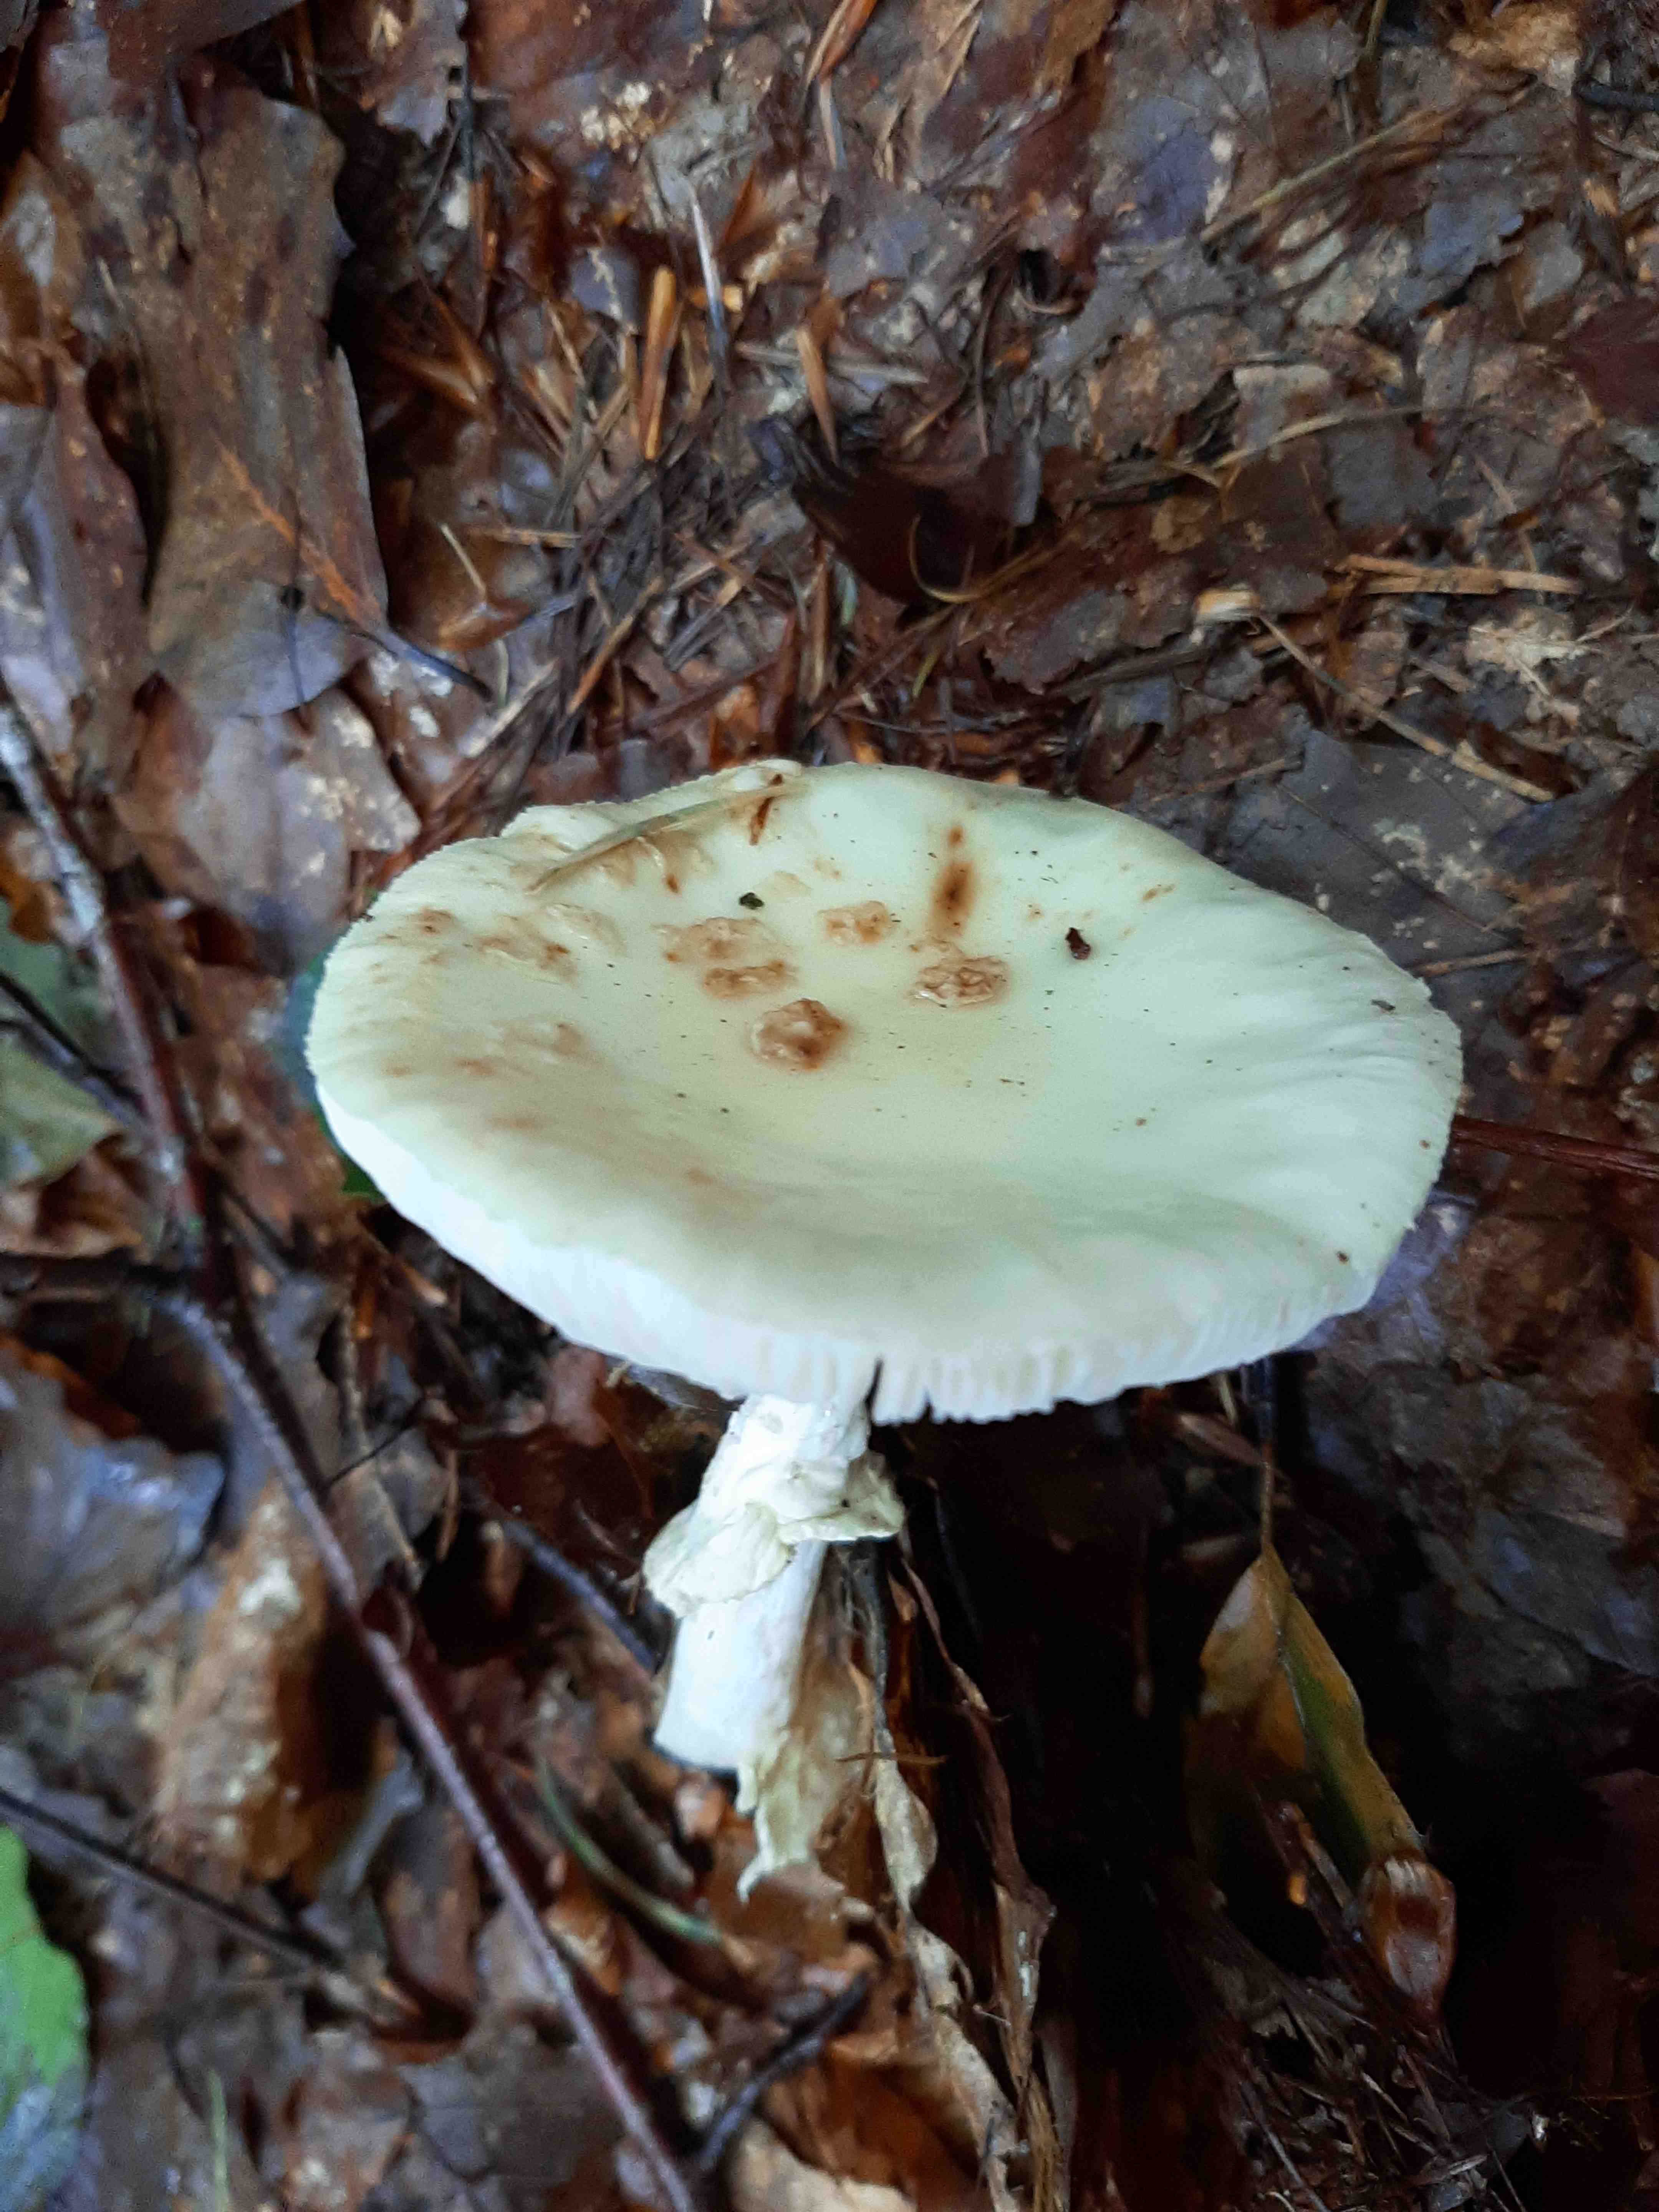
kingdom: Fungi
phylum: Basidiomycota
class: Agaricomycetes
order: Agaricales
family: Amanitaceae
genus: Amanita
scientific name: Amanita citrina
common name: kugleknoldet fluesvamp
